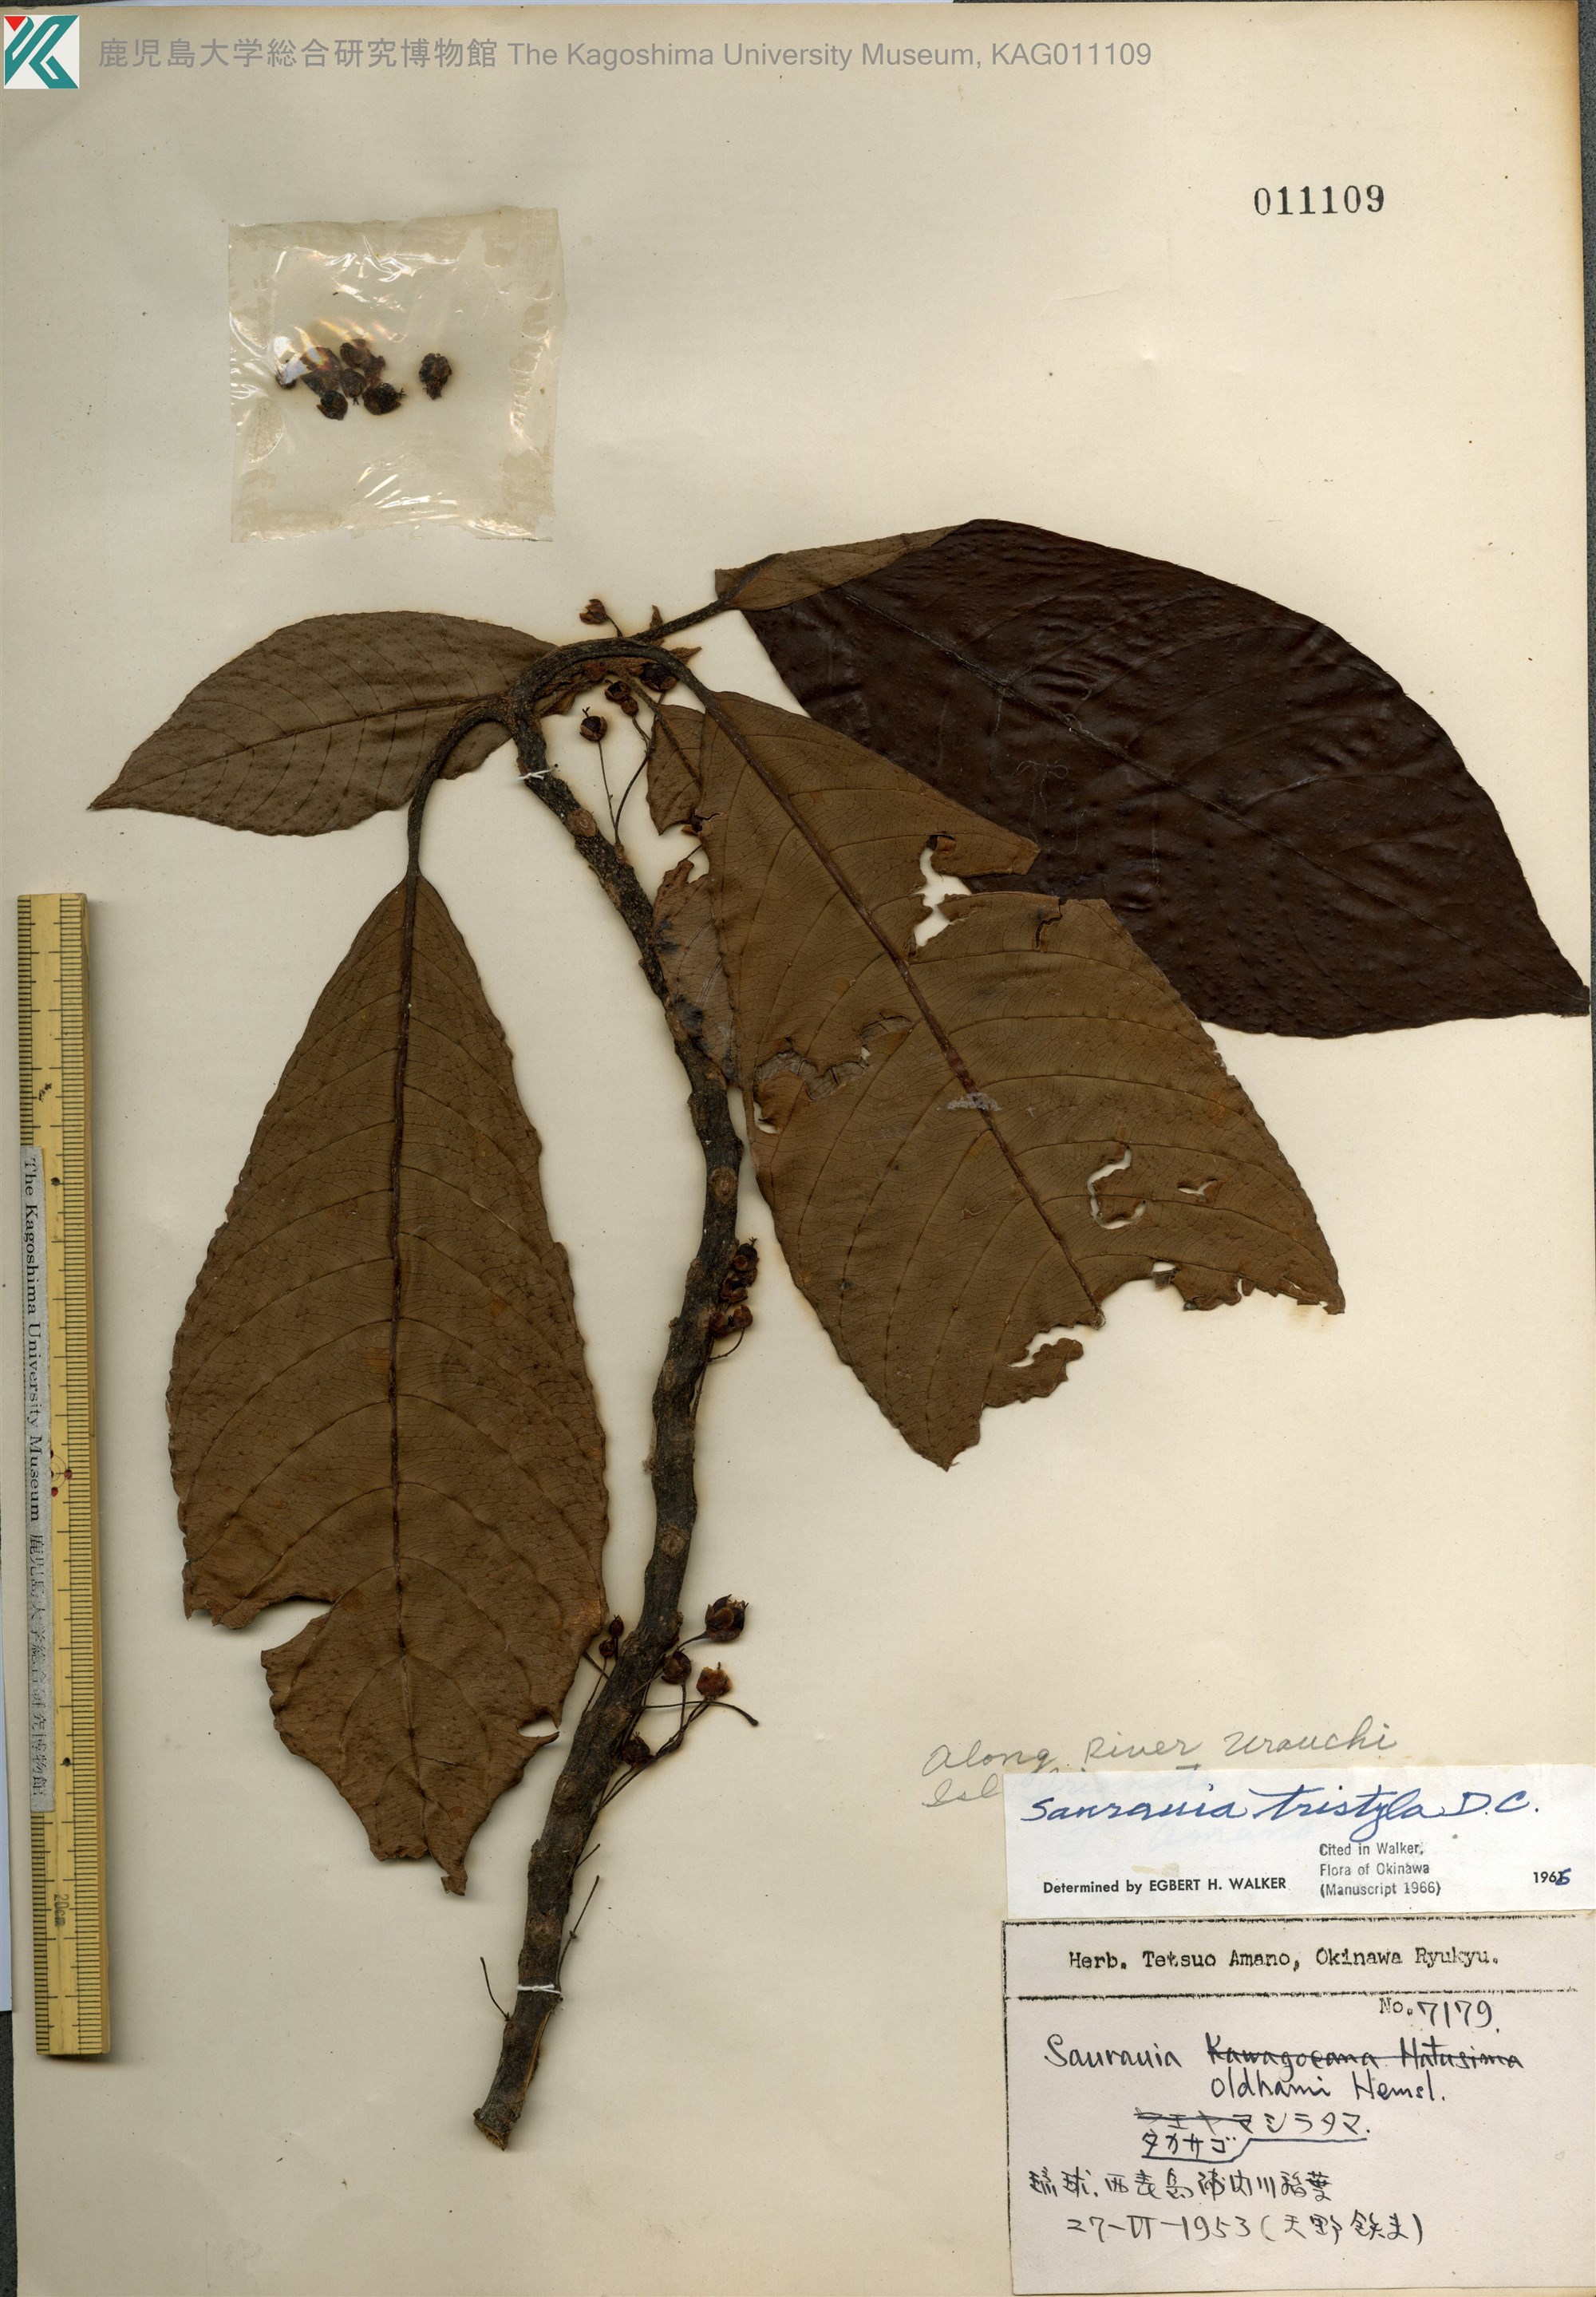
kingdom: Plantae
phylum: Tracheophyta
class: Magnoliopsida
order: Ericales
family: Actinidiaceae
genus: Saurauia
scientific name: Saurauia tristyla
